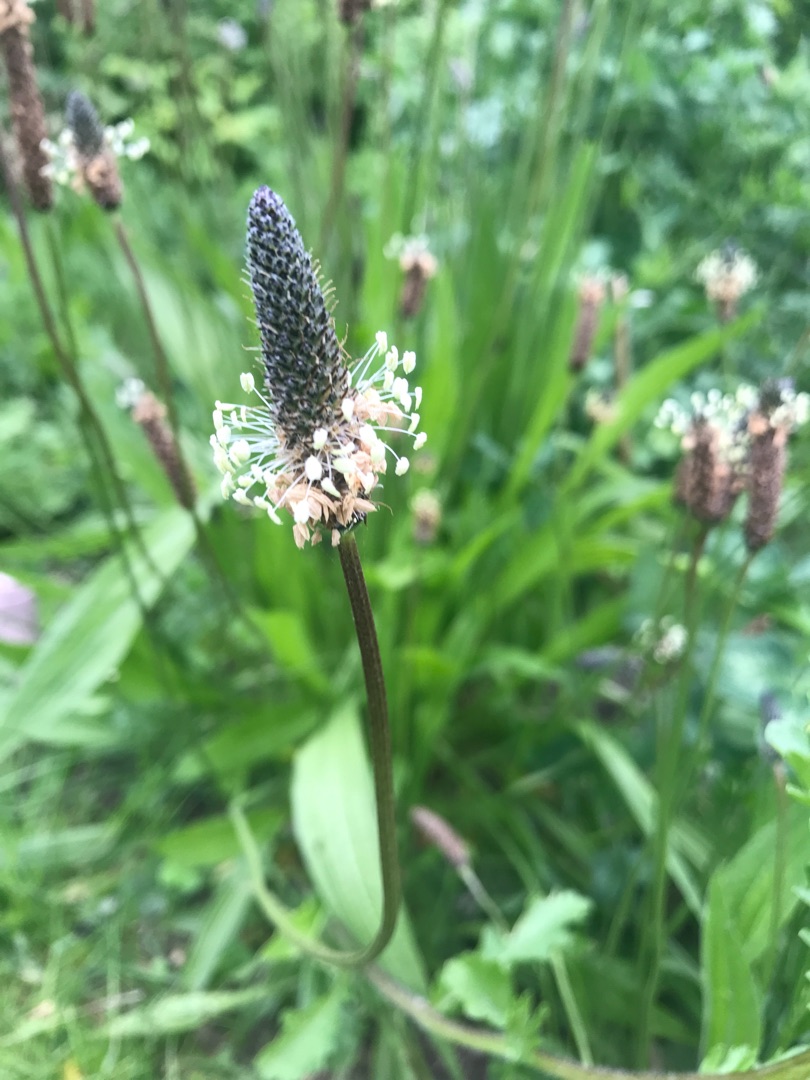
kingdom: Plantae
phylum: Tracheophyta
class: Magnoliopsida
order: Lamiales
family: Plantaginaceae
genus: Plantago
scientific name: Plantago lanceolata
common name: Lancet-vejbred
